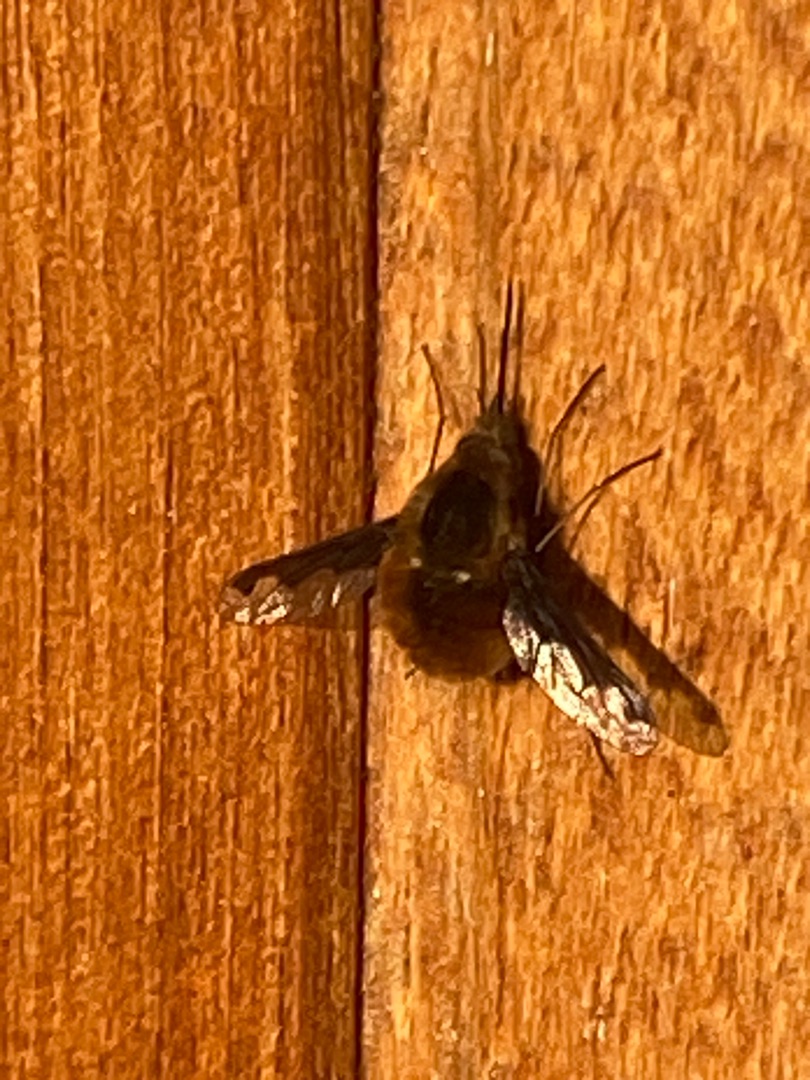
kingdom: Animalia
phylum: Arthropoda
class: Insecta
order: Diptera
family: Bombyliidae
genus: Bombylius
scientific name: Bombylius major
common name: Stor humleflue
